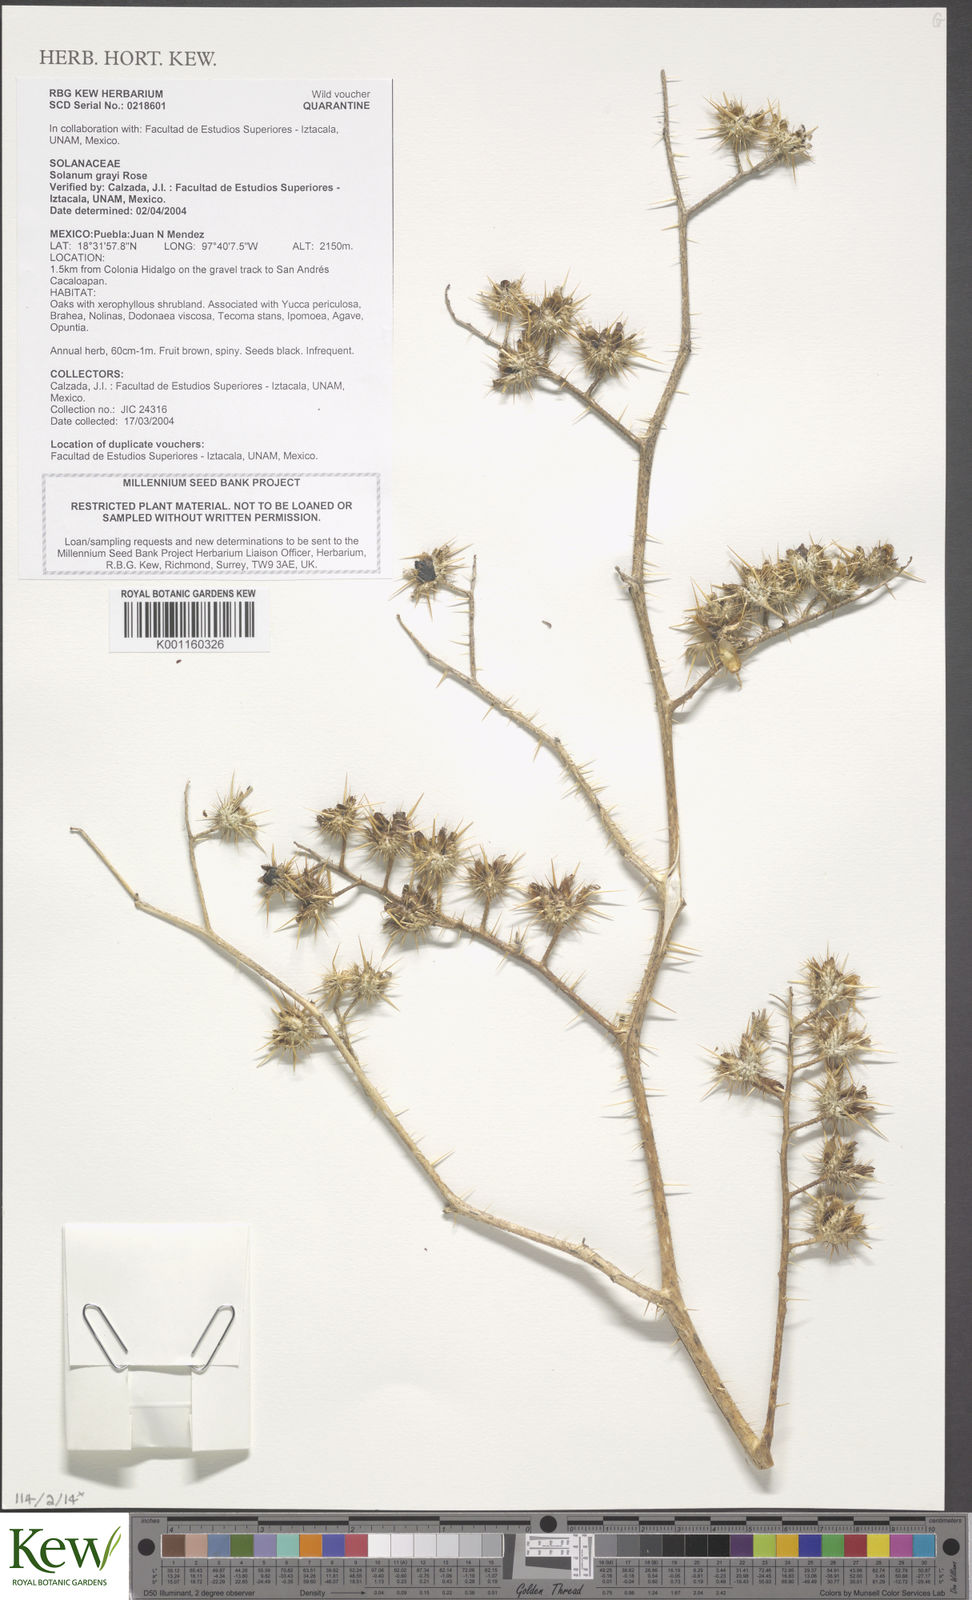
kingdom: Plantae
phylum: Tracheophyta
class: Magnoliopsida
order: Solanales
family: Solanaceae
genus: Solanum
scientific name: Solanum grayi
